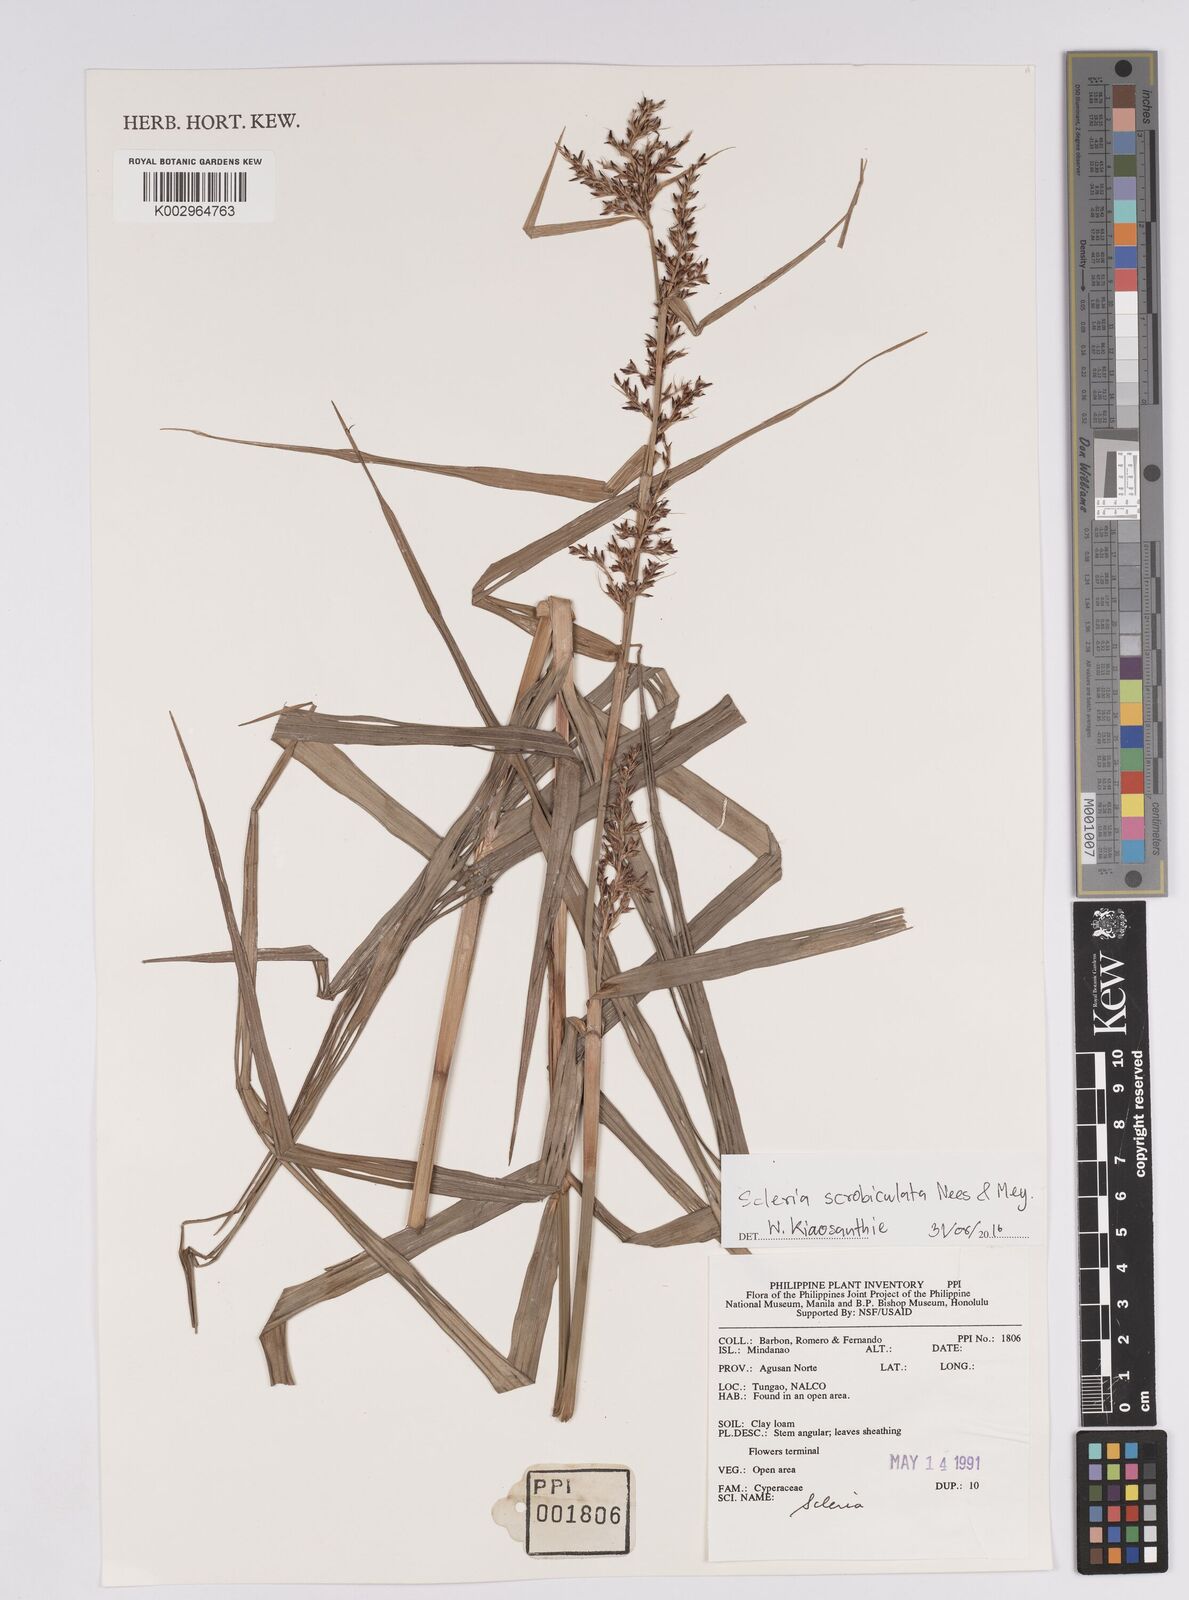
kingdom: Plantae
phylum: Tracheophyta
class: Liliopsida
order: Poales
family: Cyperaceae
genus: Scleria
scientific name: Scleria scrobiculata
